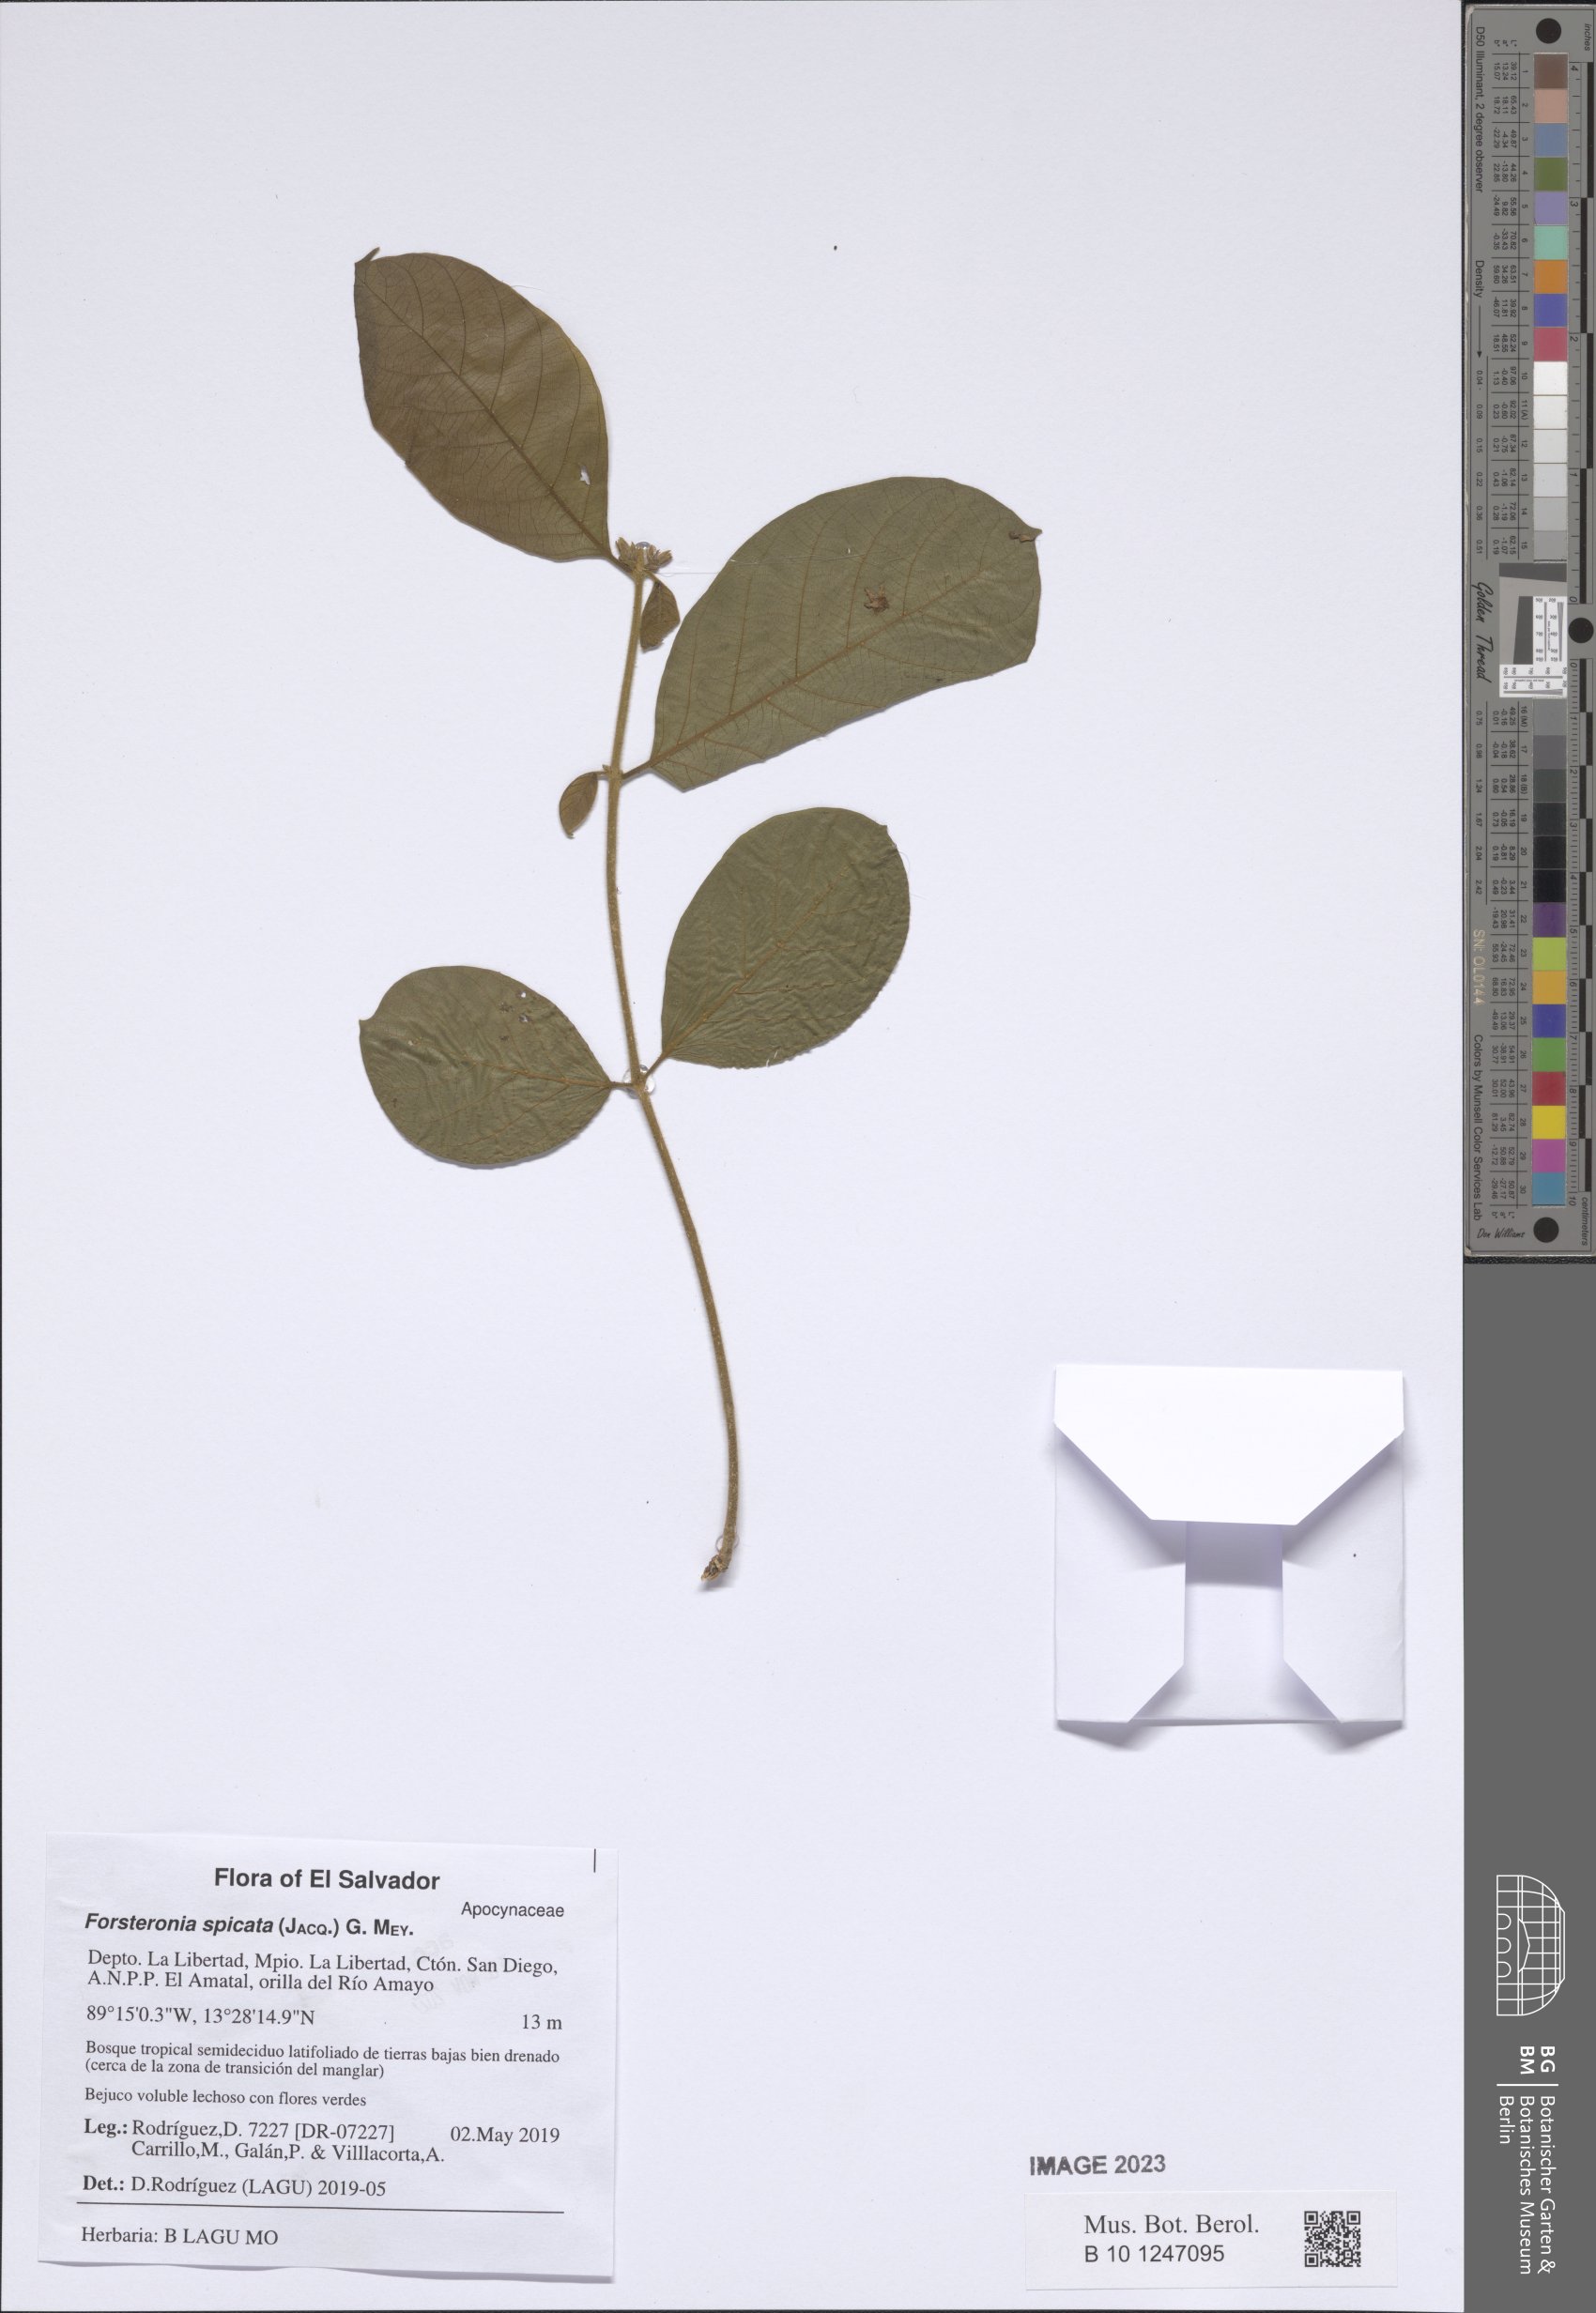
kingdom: Plantae
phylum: Tracheophyta
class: Magnoliopsida
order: Gentianales
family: Apocynaceae
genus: Forsteronia
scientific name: Forsteronia spicata
